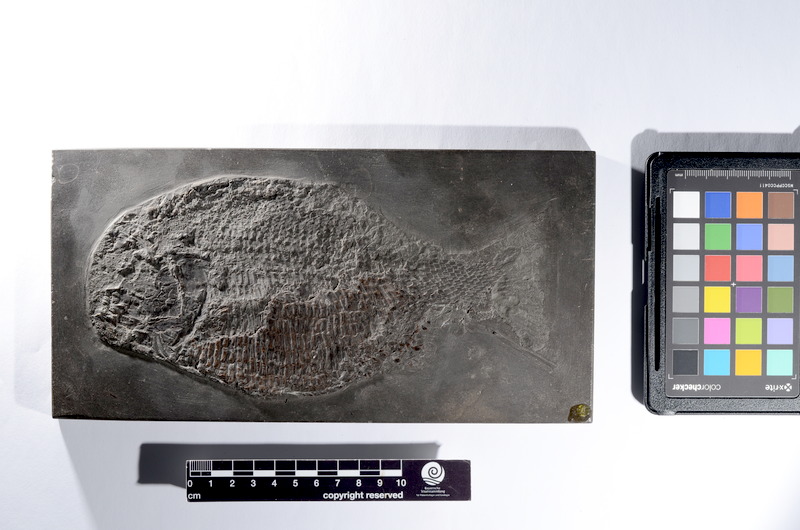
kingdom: Animalia
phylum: Chordata
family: Dapediidae
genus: Dapedium
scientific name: Dapedium
